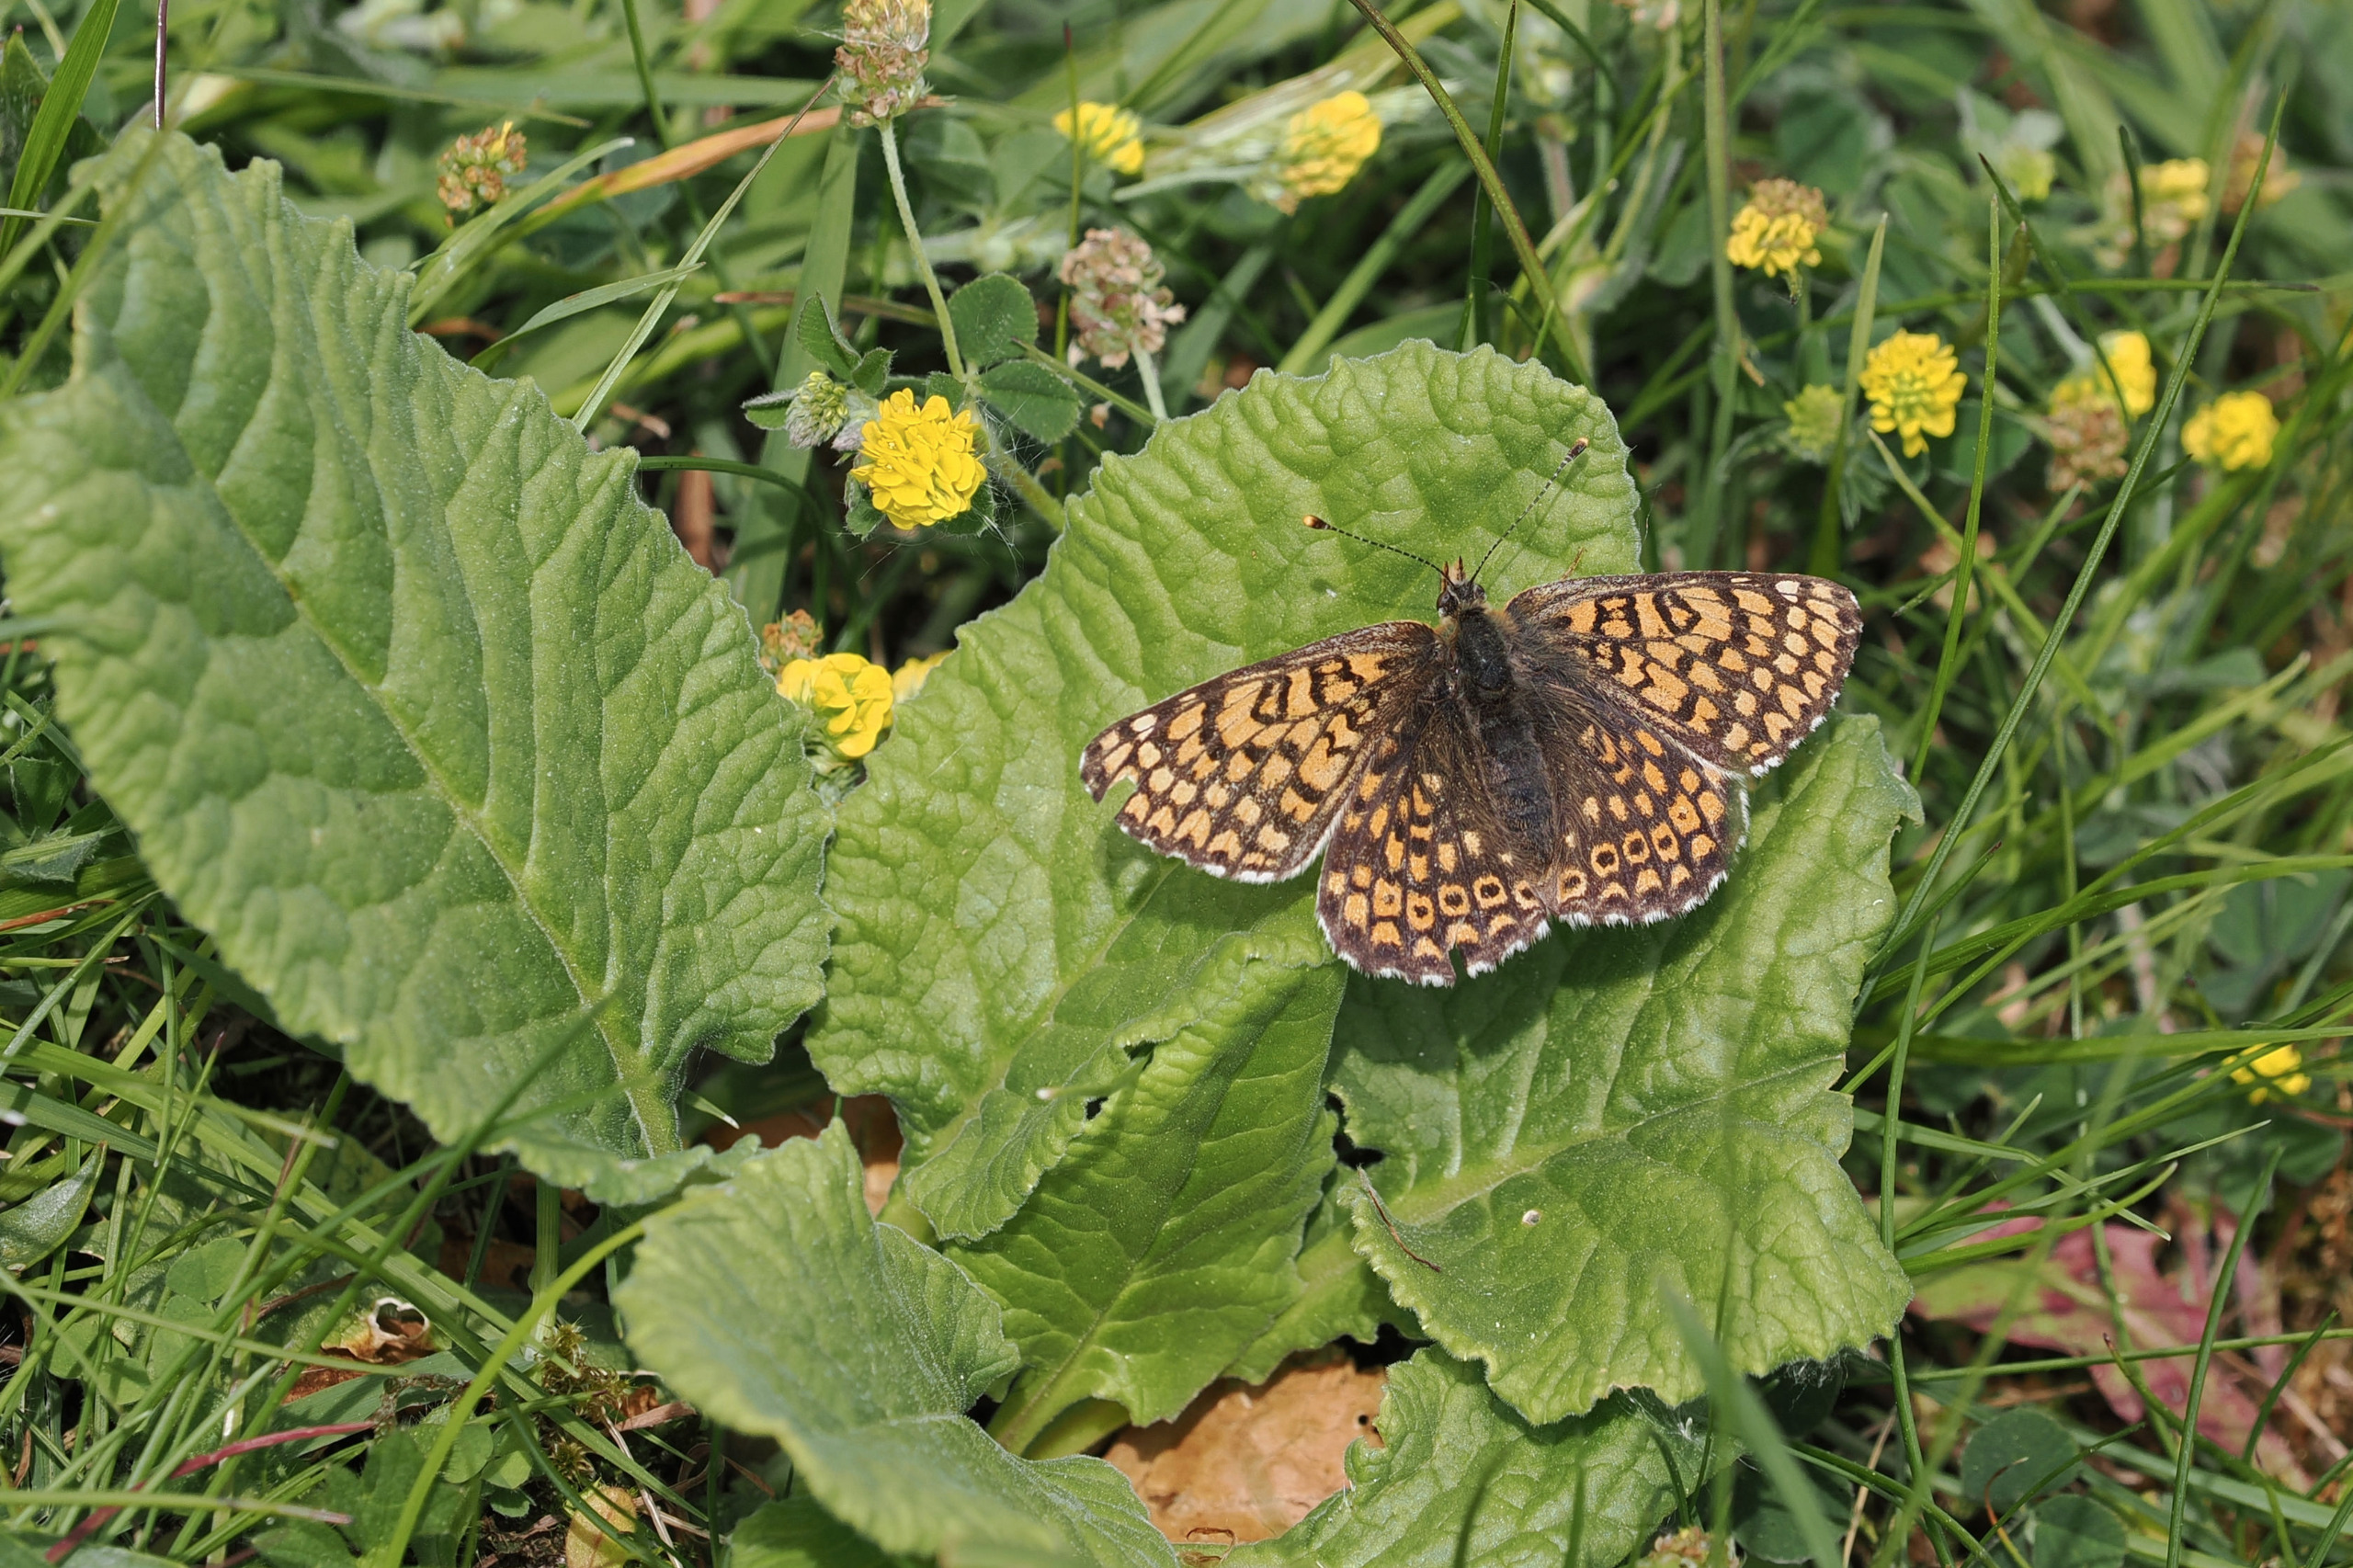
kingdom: Animalia
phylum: Arthropoda
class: Insecta
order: Lepidoptera
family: Nymphalidae
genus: Melitaea
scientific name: Melitaea cinxia
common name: Okkergul pletvinge
